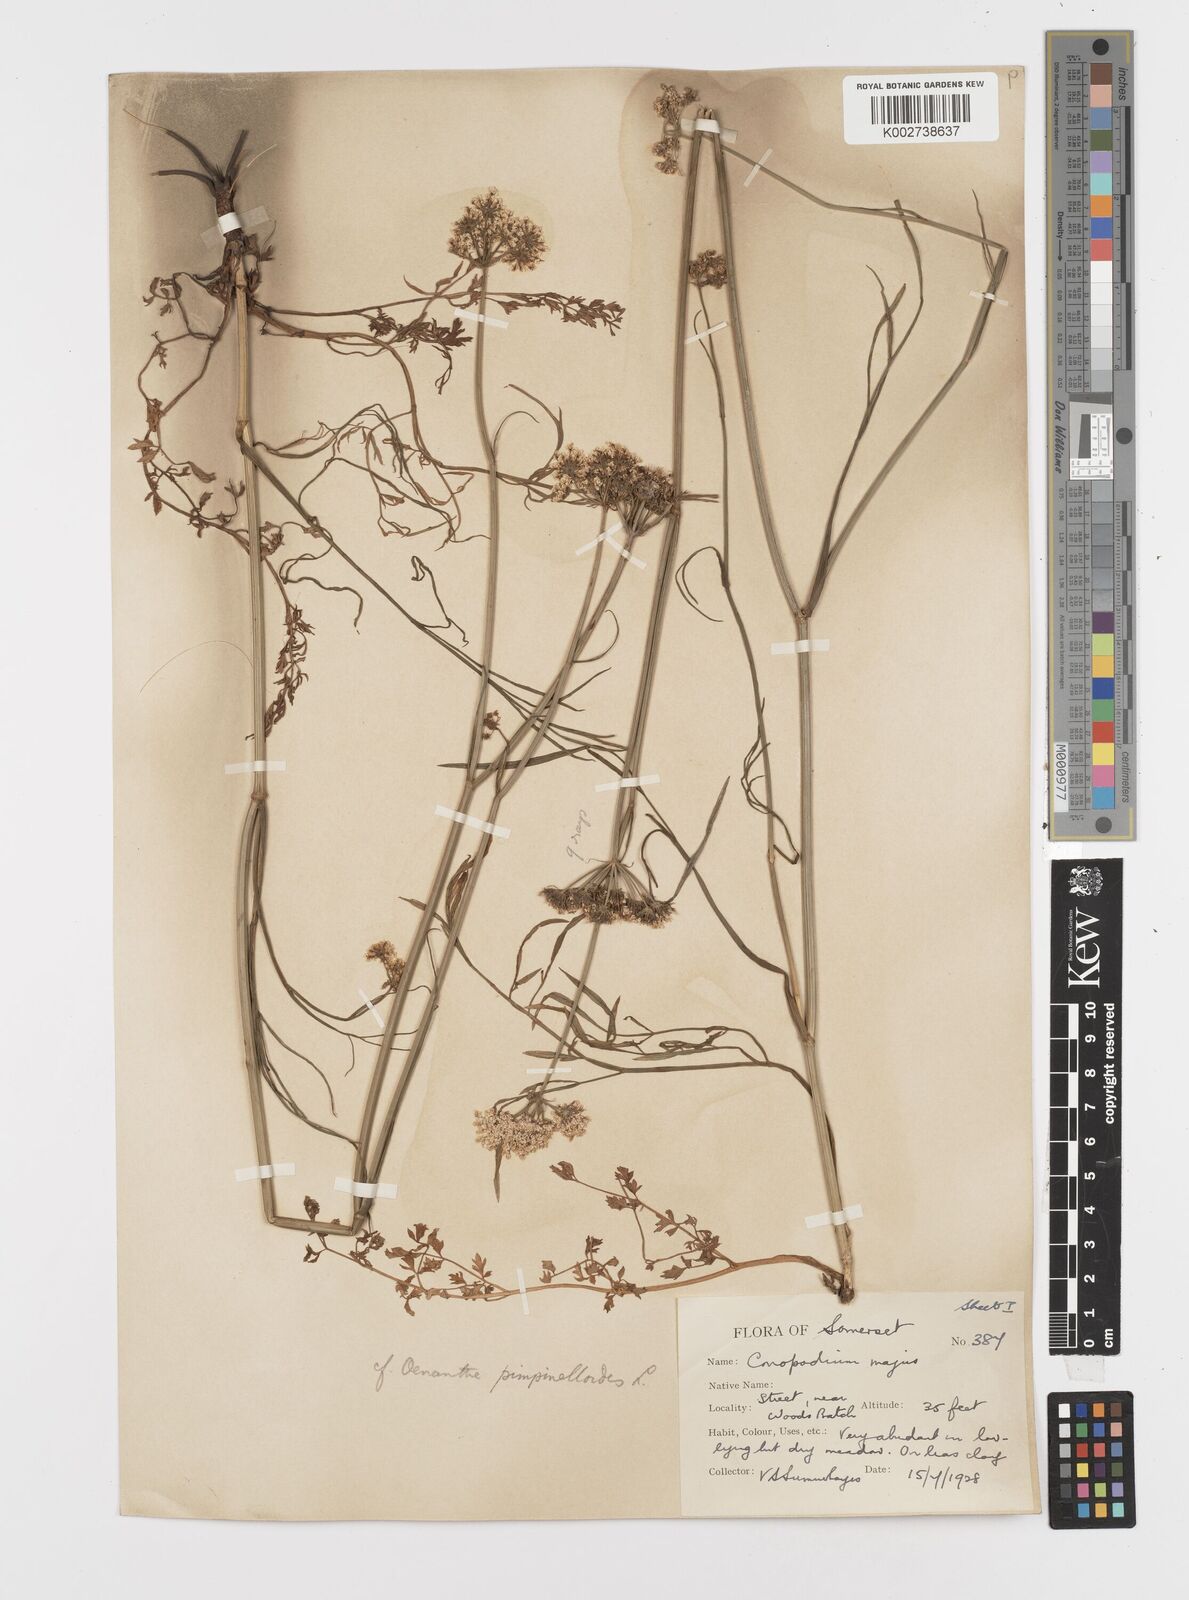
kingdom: Plantae
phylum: Tracheophyta
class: Magnoliopsida
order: Apiales
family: Apiaceae
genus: Oenanthe
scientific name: Oenanthe pimpinelloides
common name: Corky-fruited water-dropwort
